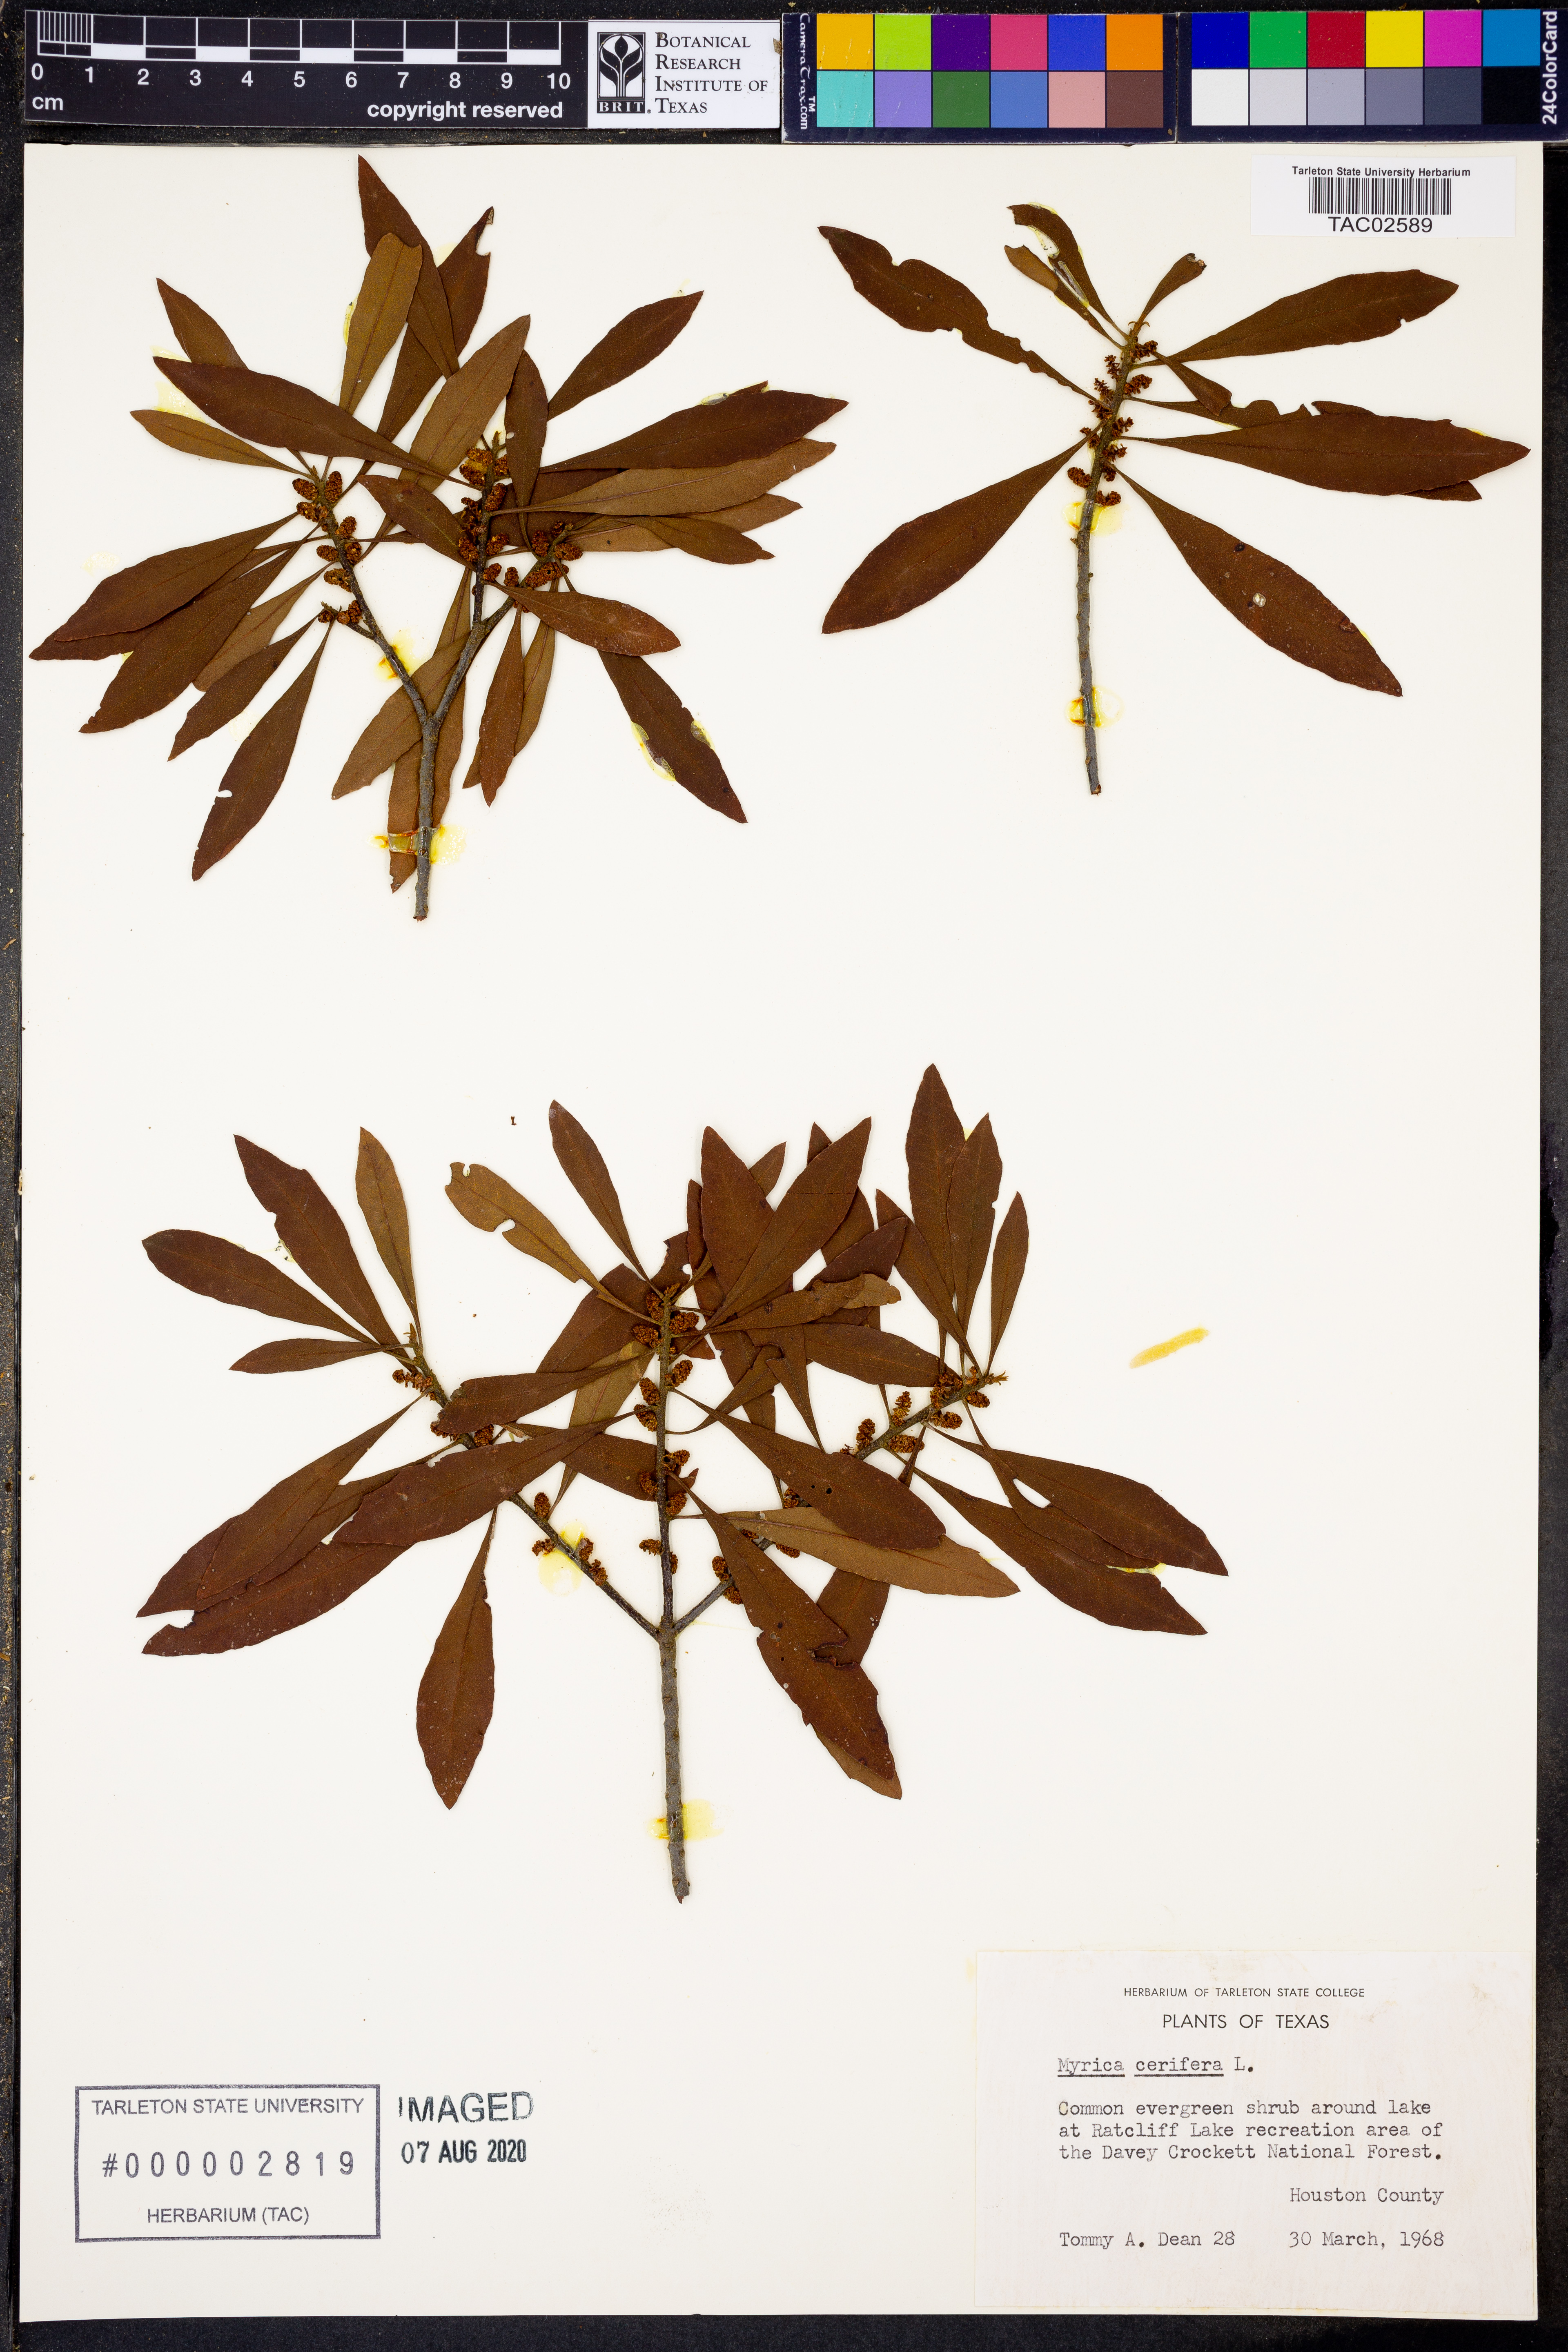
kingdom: Plantae
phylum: Tracheophyta
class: Magnoliopsida
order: Fagales
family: Myricaceae
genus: Morella
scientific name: Morella cerifera
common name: Wax myrtle
